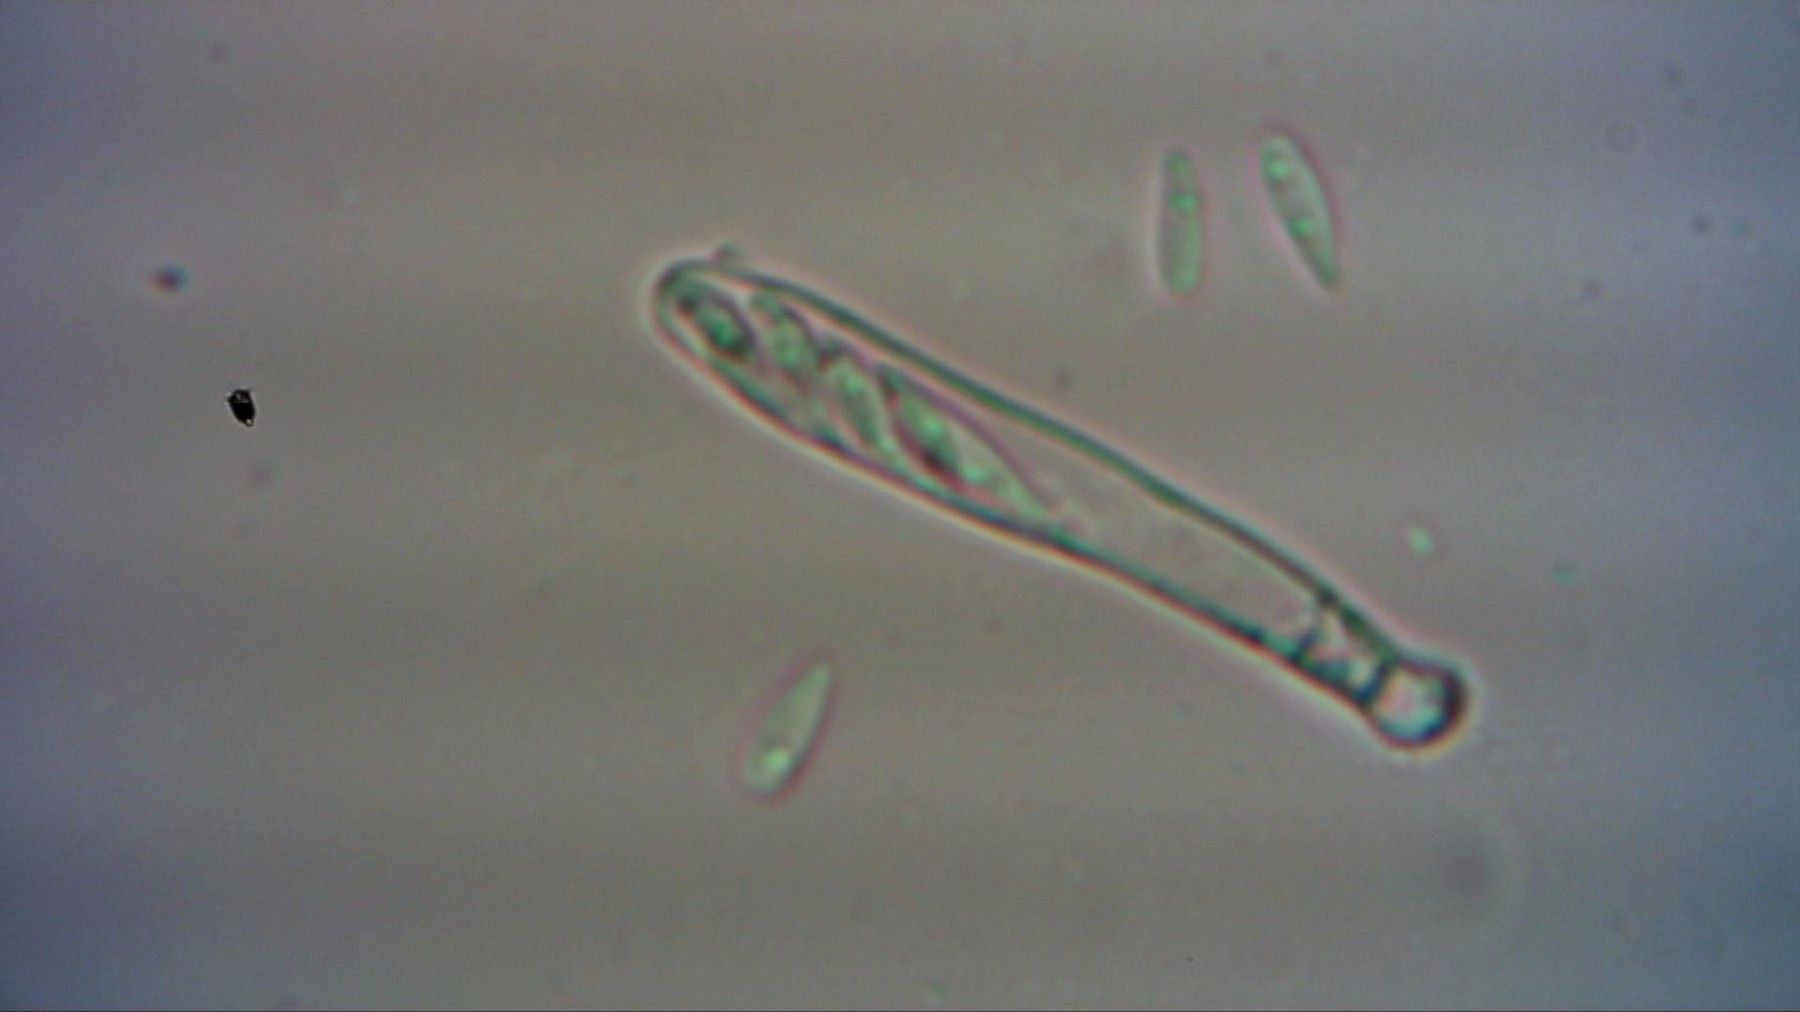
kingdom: Fungi
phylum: Ascomycota
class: Leotiomycetes
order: Helotiales
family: Pezizellaceae
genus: Calycina
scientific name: Calycina subtilis
